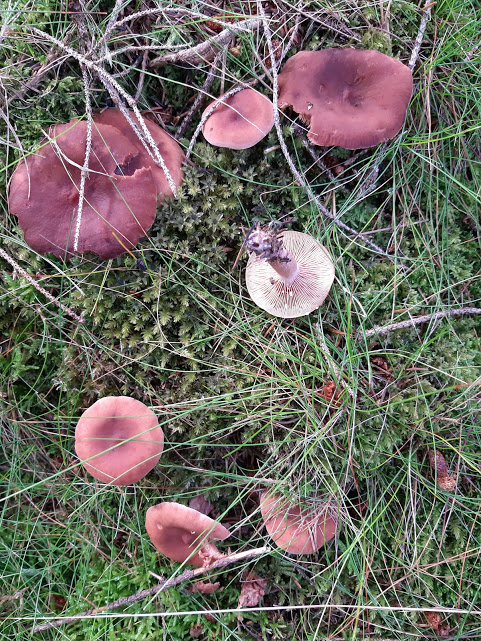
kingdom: Fungi
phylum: Basidiomycota
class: Agaricomycetes
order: Russulales
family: Russulaceae
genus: Lactarius
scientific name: Lactarius camphoratus
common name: kamfer-mælkehat
